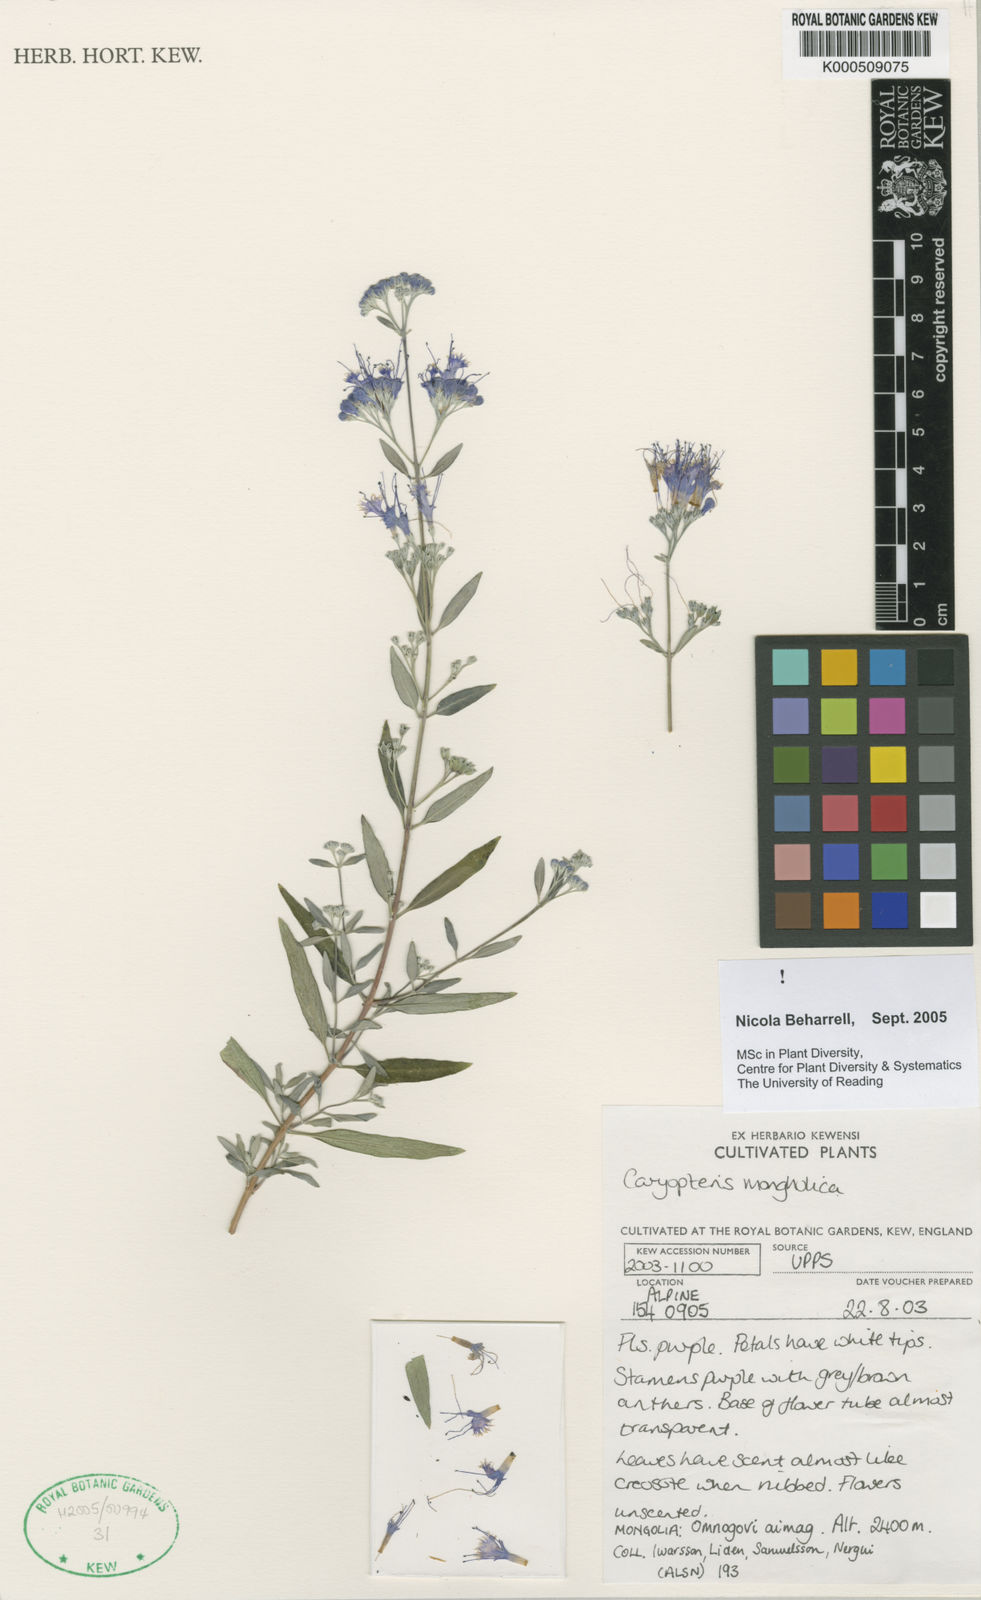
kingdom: Plantae
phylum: Tracheophyta
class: Magnoliopsida
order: Lamiales
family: Lamiaceae
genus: Caryopteris
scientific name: Caryopteris mongholica
